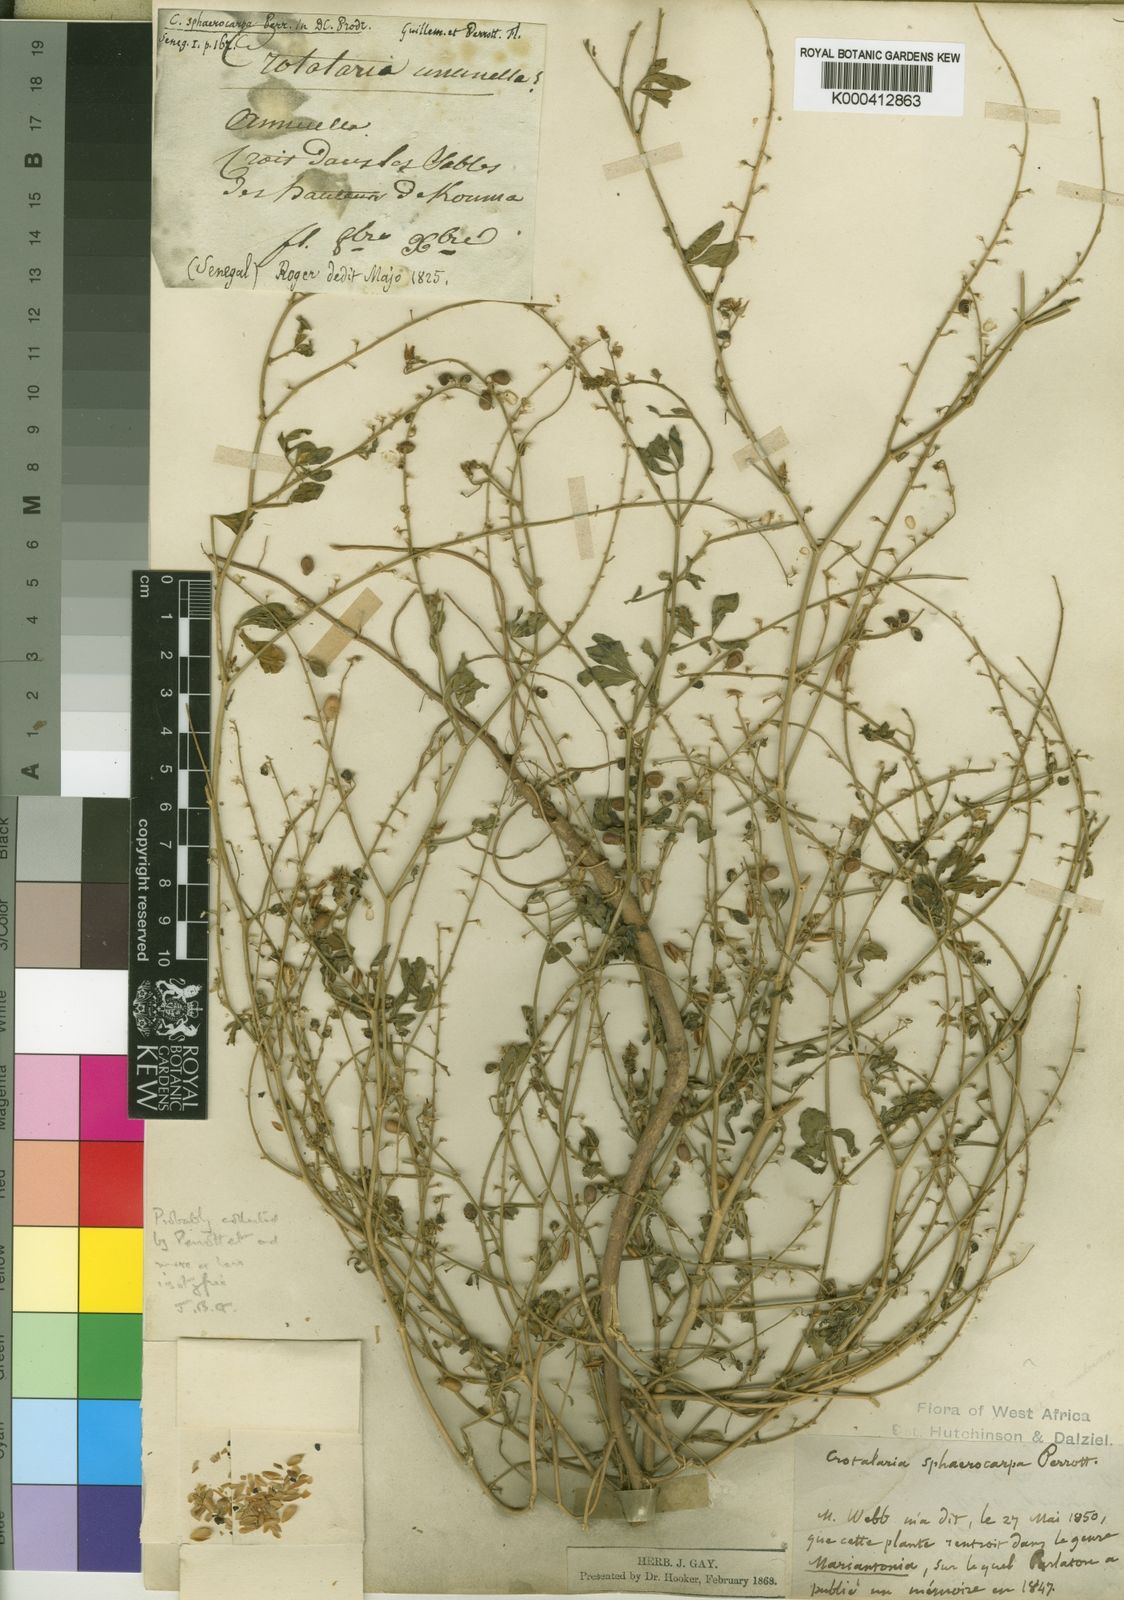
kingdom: Plantae
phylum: Tracheophyta
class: Magnoliopsida
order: Fabales
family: Fabaceae
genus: Crotalaria
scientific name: Crotalaria sphaerocarpa
